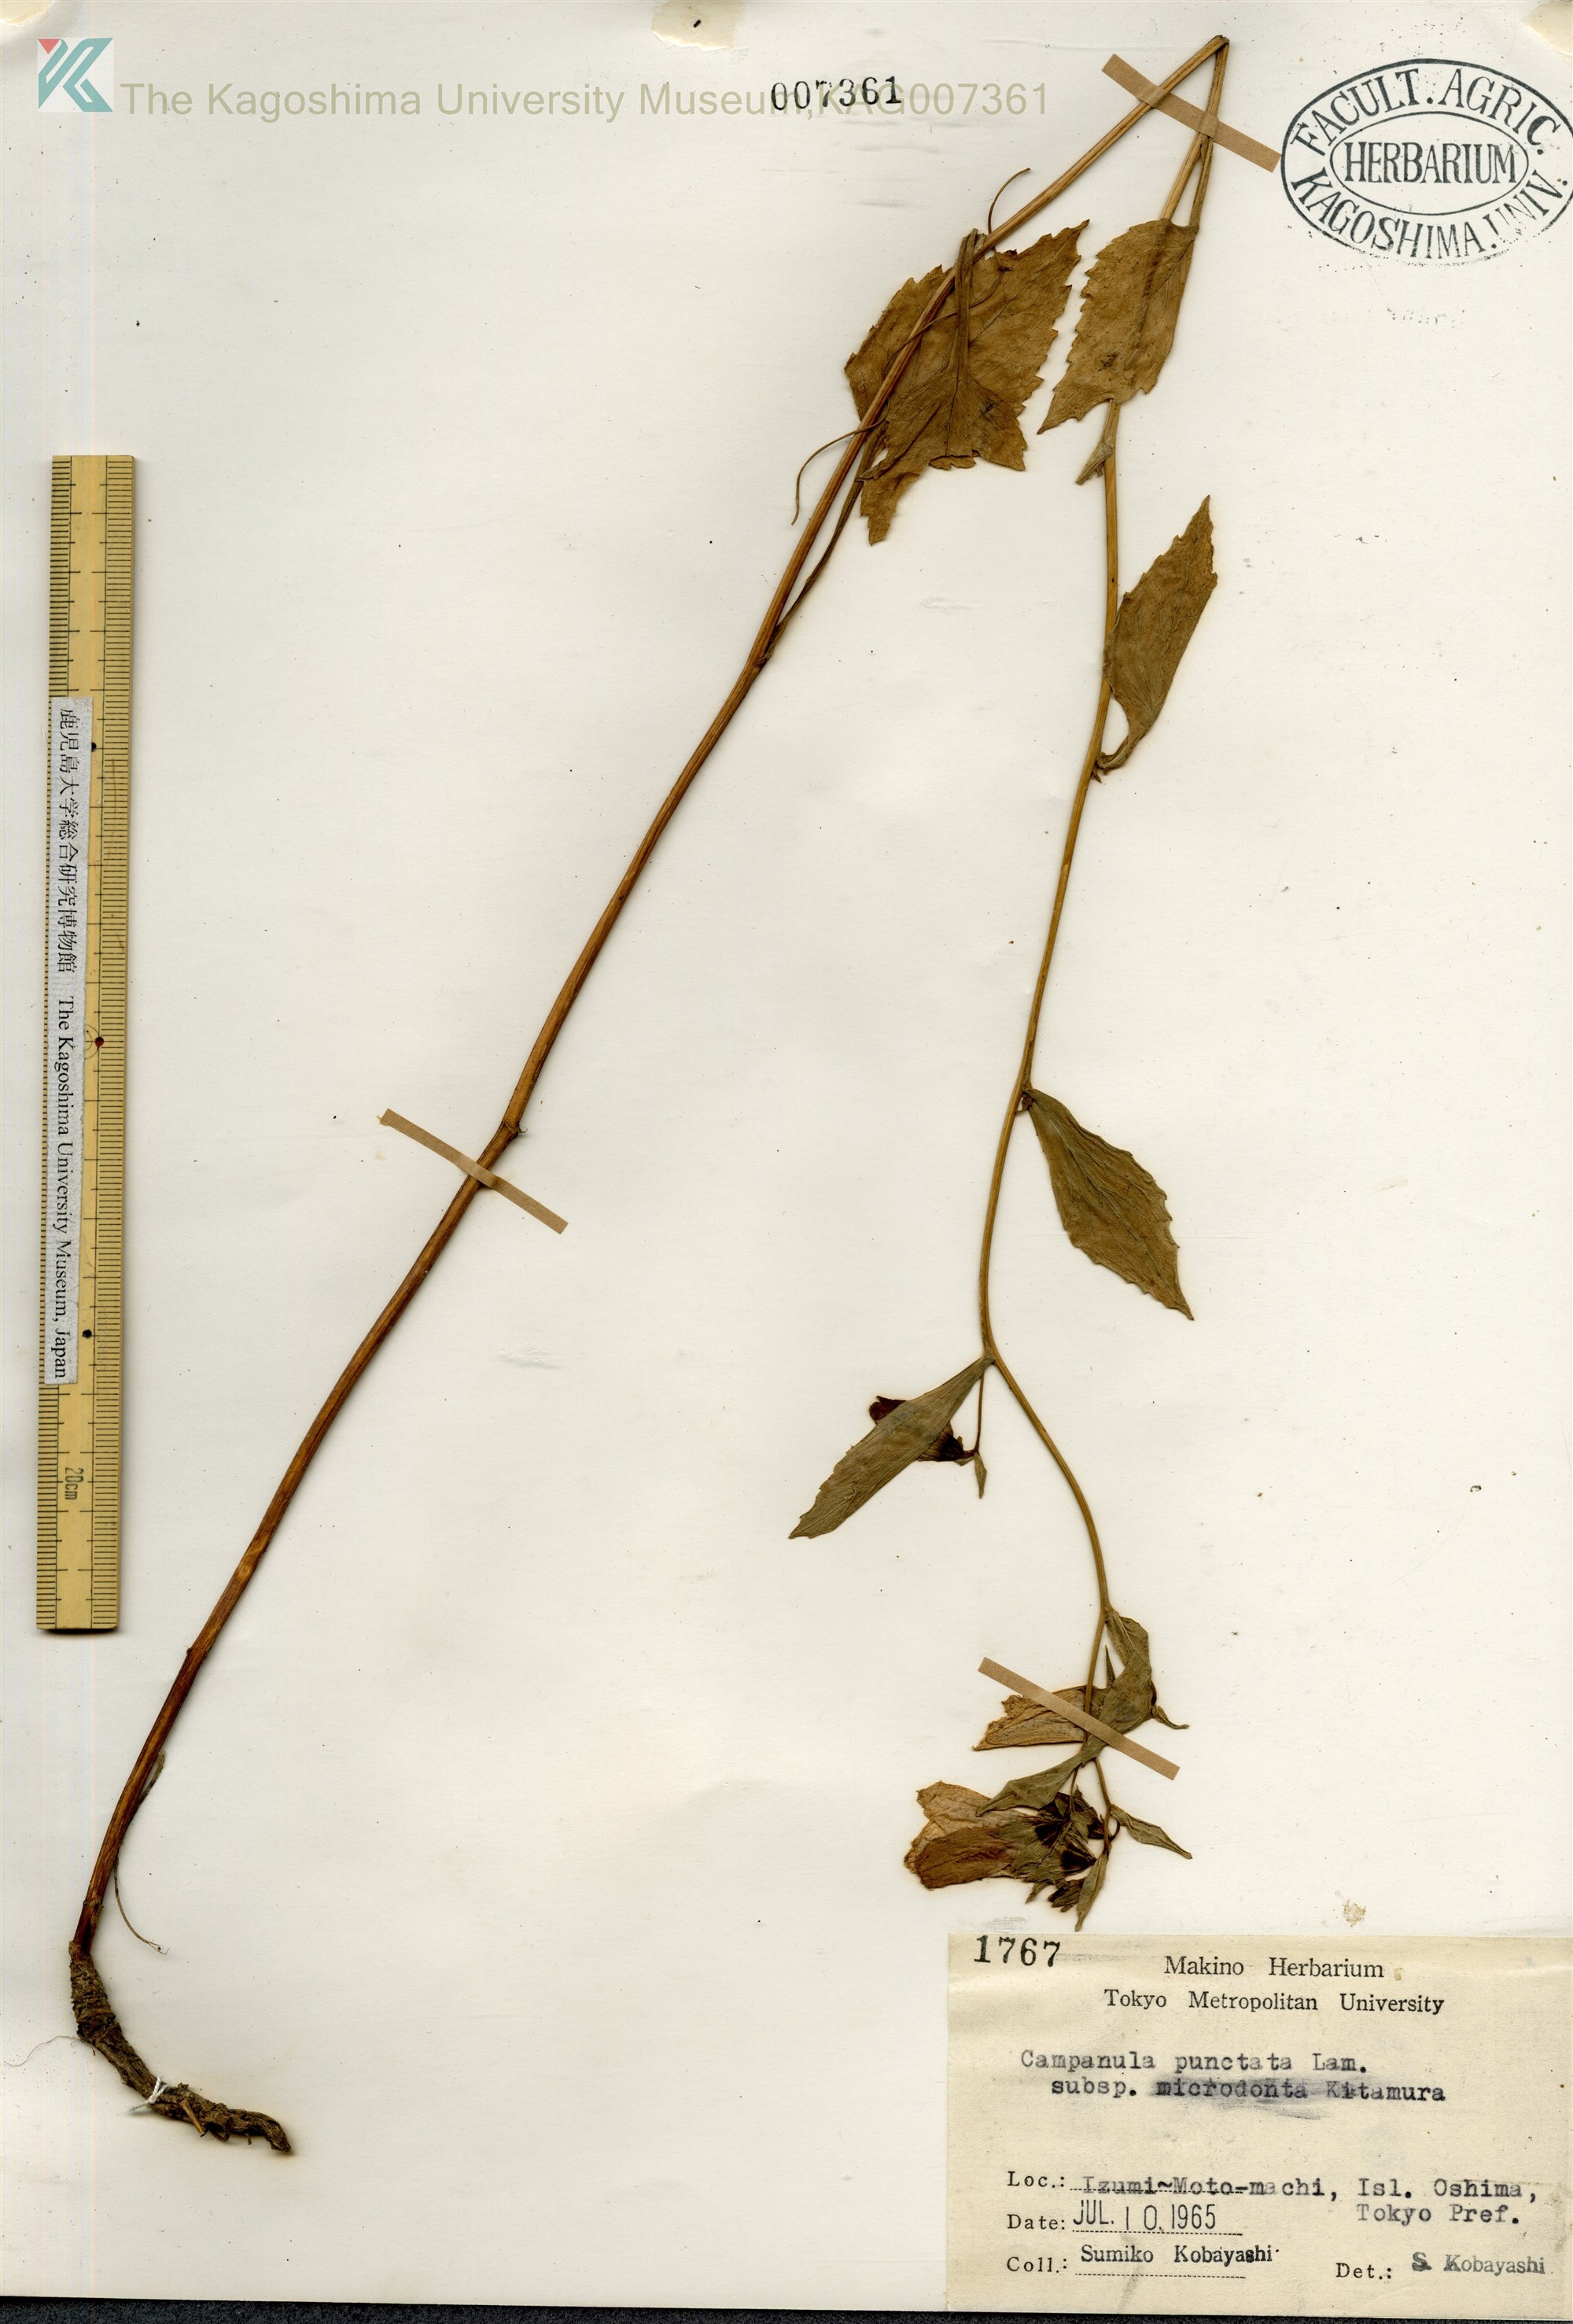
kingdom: Plantae
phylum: Tracheophyta
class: Magnoliopsida
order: Asterales
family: Campanulaceae
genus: Campanula
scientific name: Campanula microdonta
